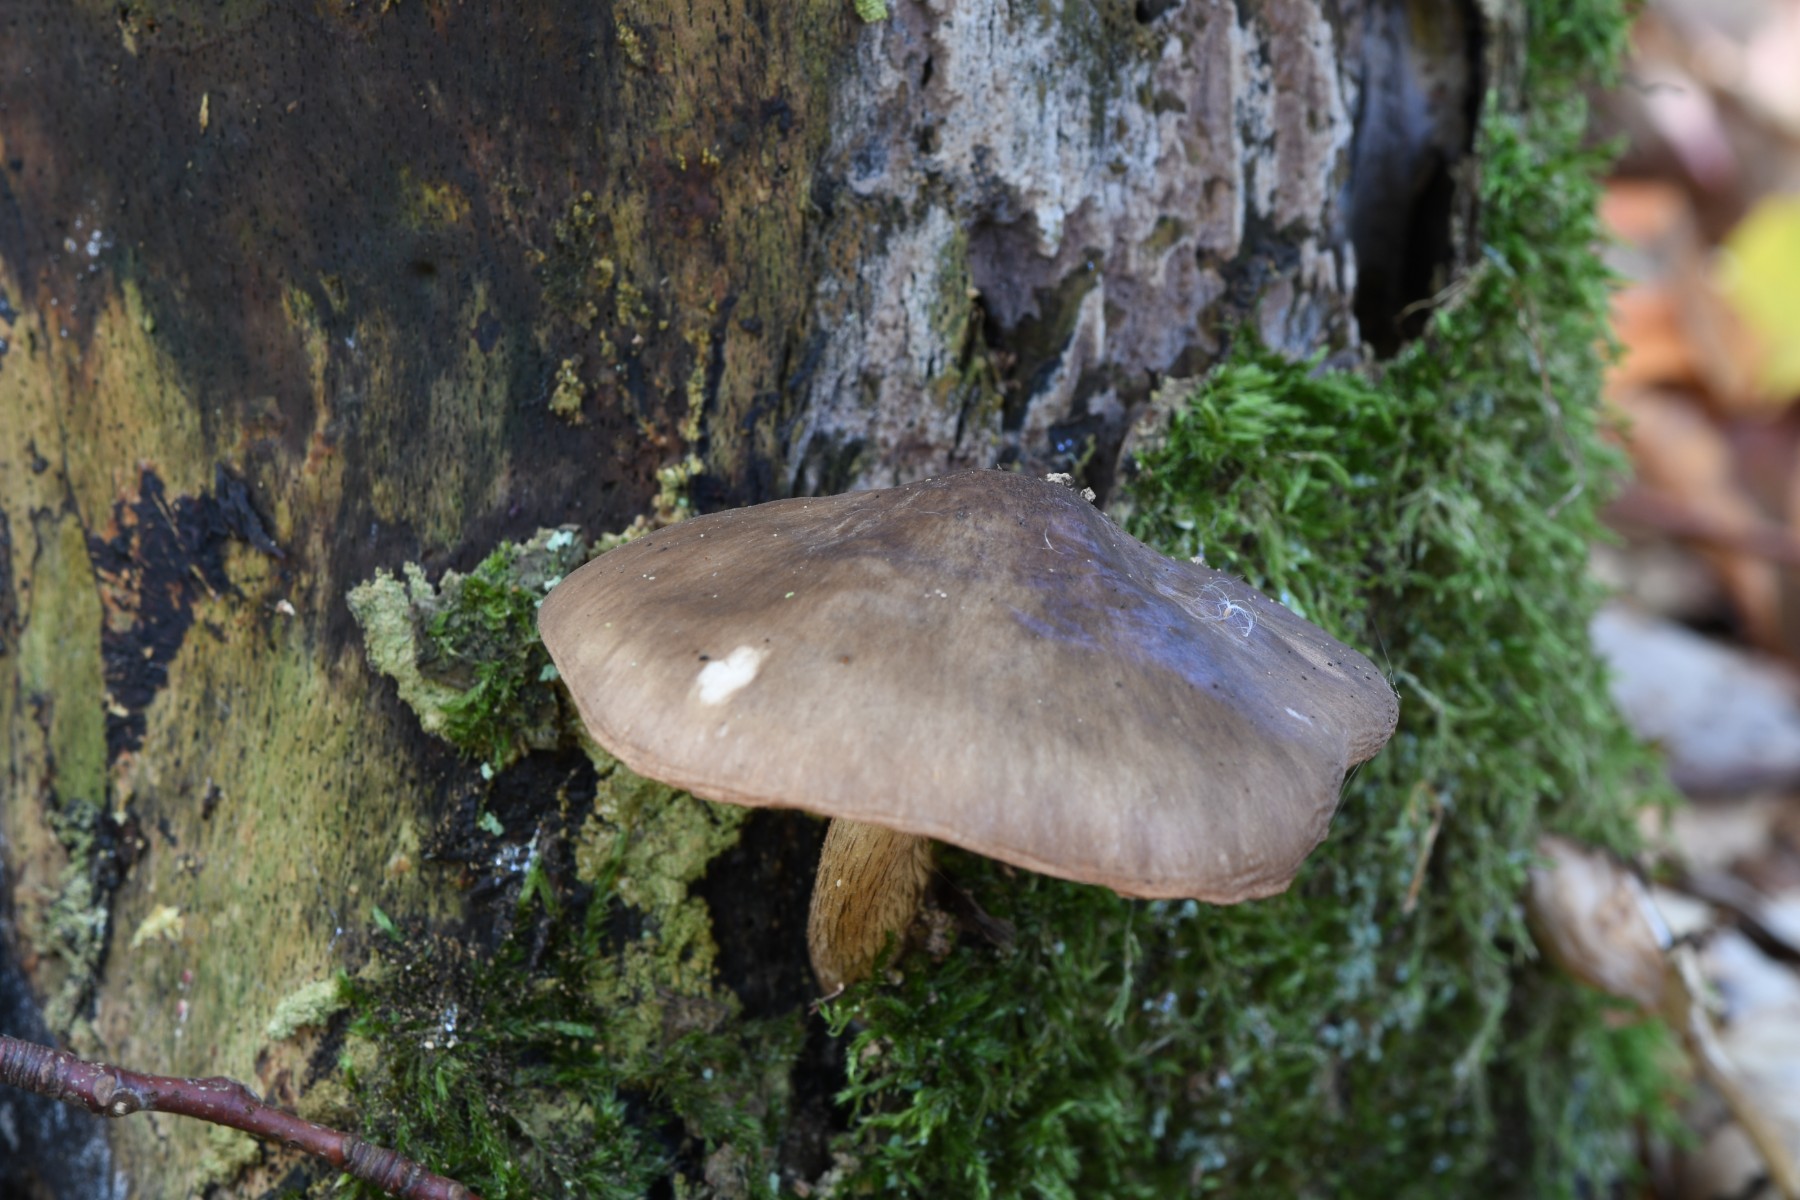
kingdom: Fungi
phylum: Basidiomycota
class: Agaricomycetes
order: Agaricales
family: Pluteaceae
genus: Pluteus
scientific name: Pluteus cervinus
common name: sodfarvet skærmhat
